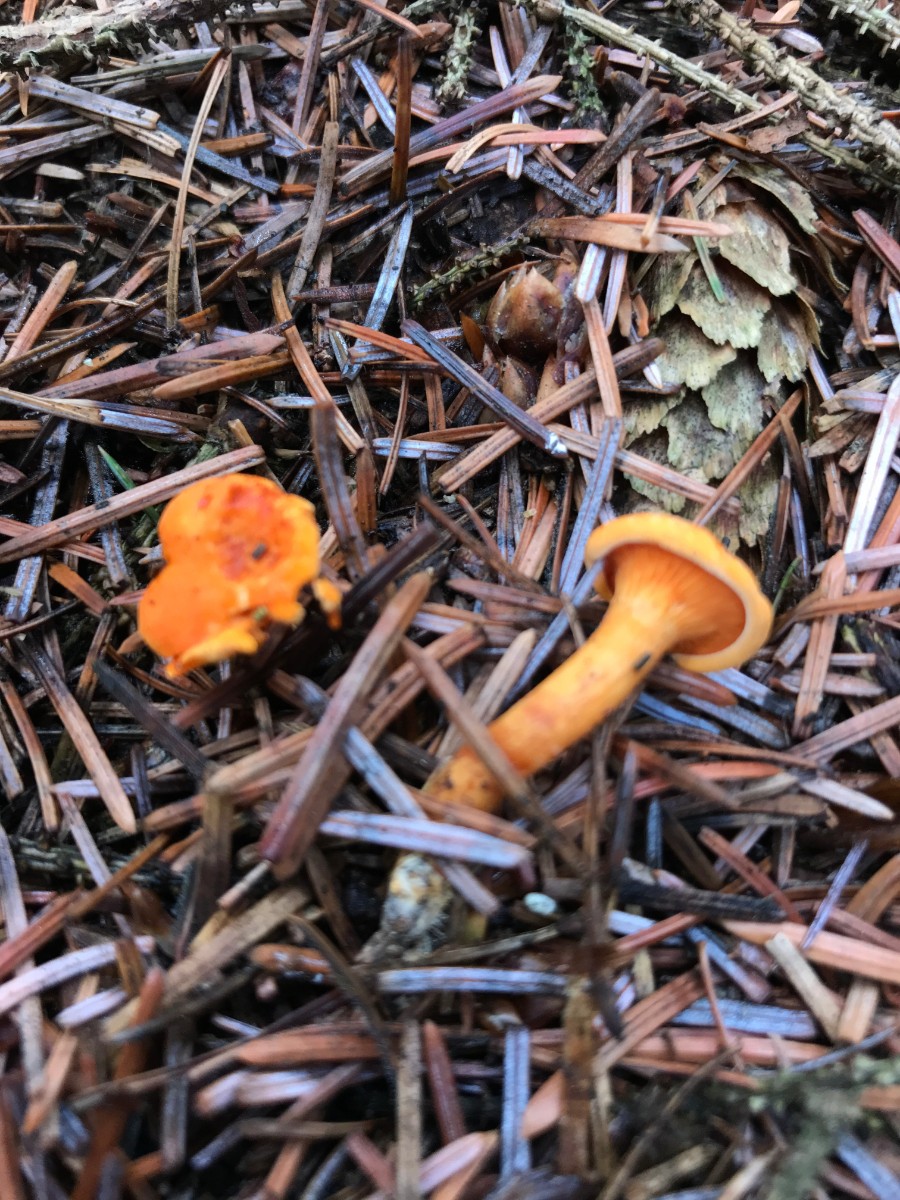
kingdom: Fungi
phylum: Basidiomycota
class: Agaricomycetes
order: Boletales
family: Hygrophoropsidaceae
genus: Hygrophoropsis
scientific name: Hygrophoropsis aurantiaca
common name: almindelig orangekantarel
